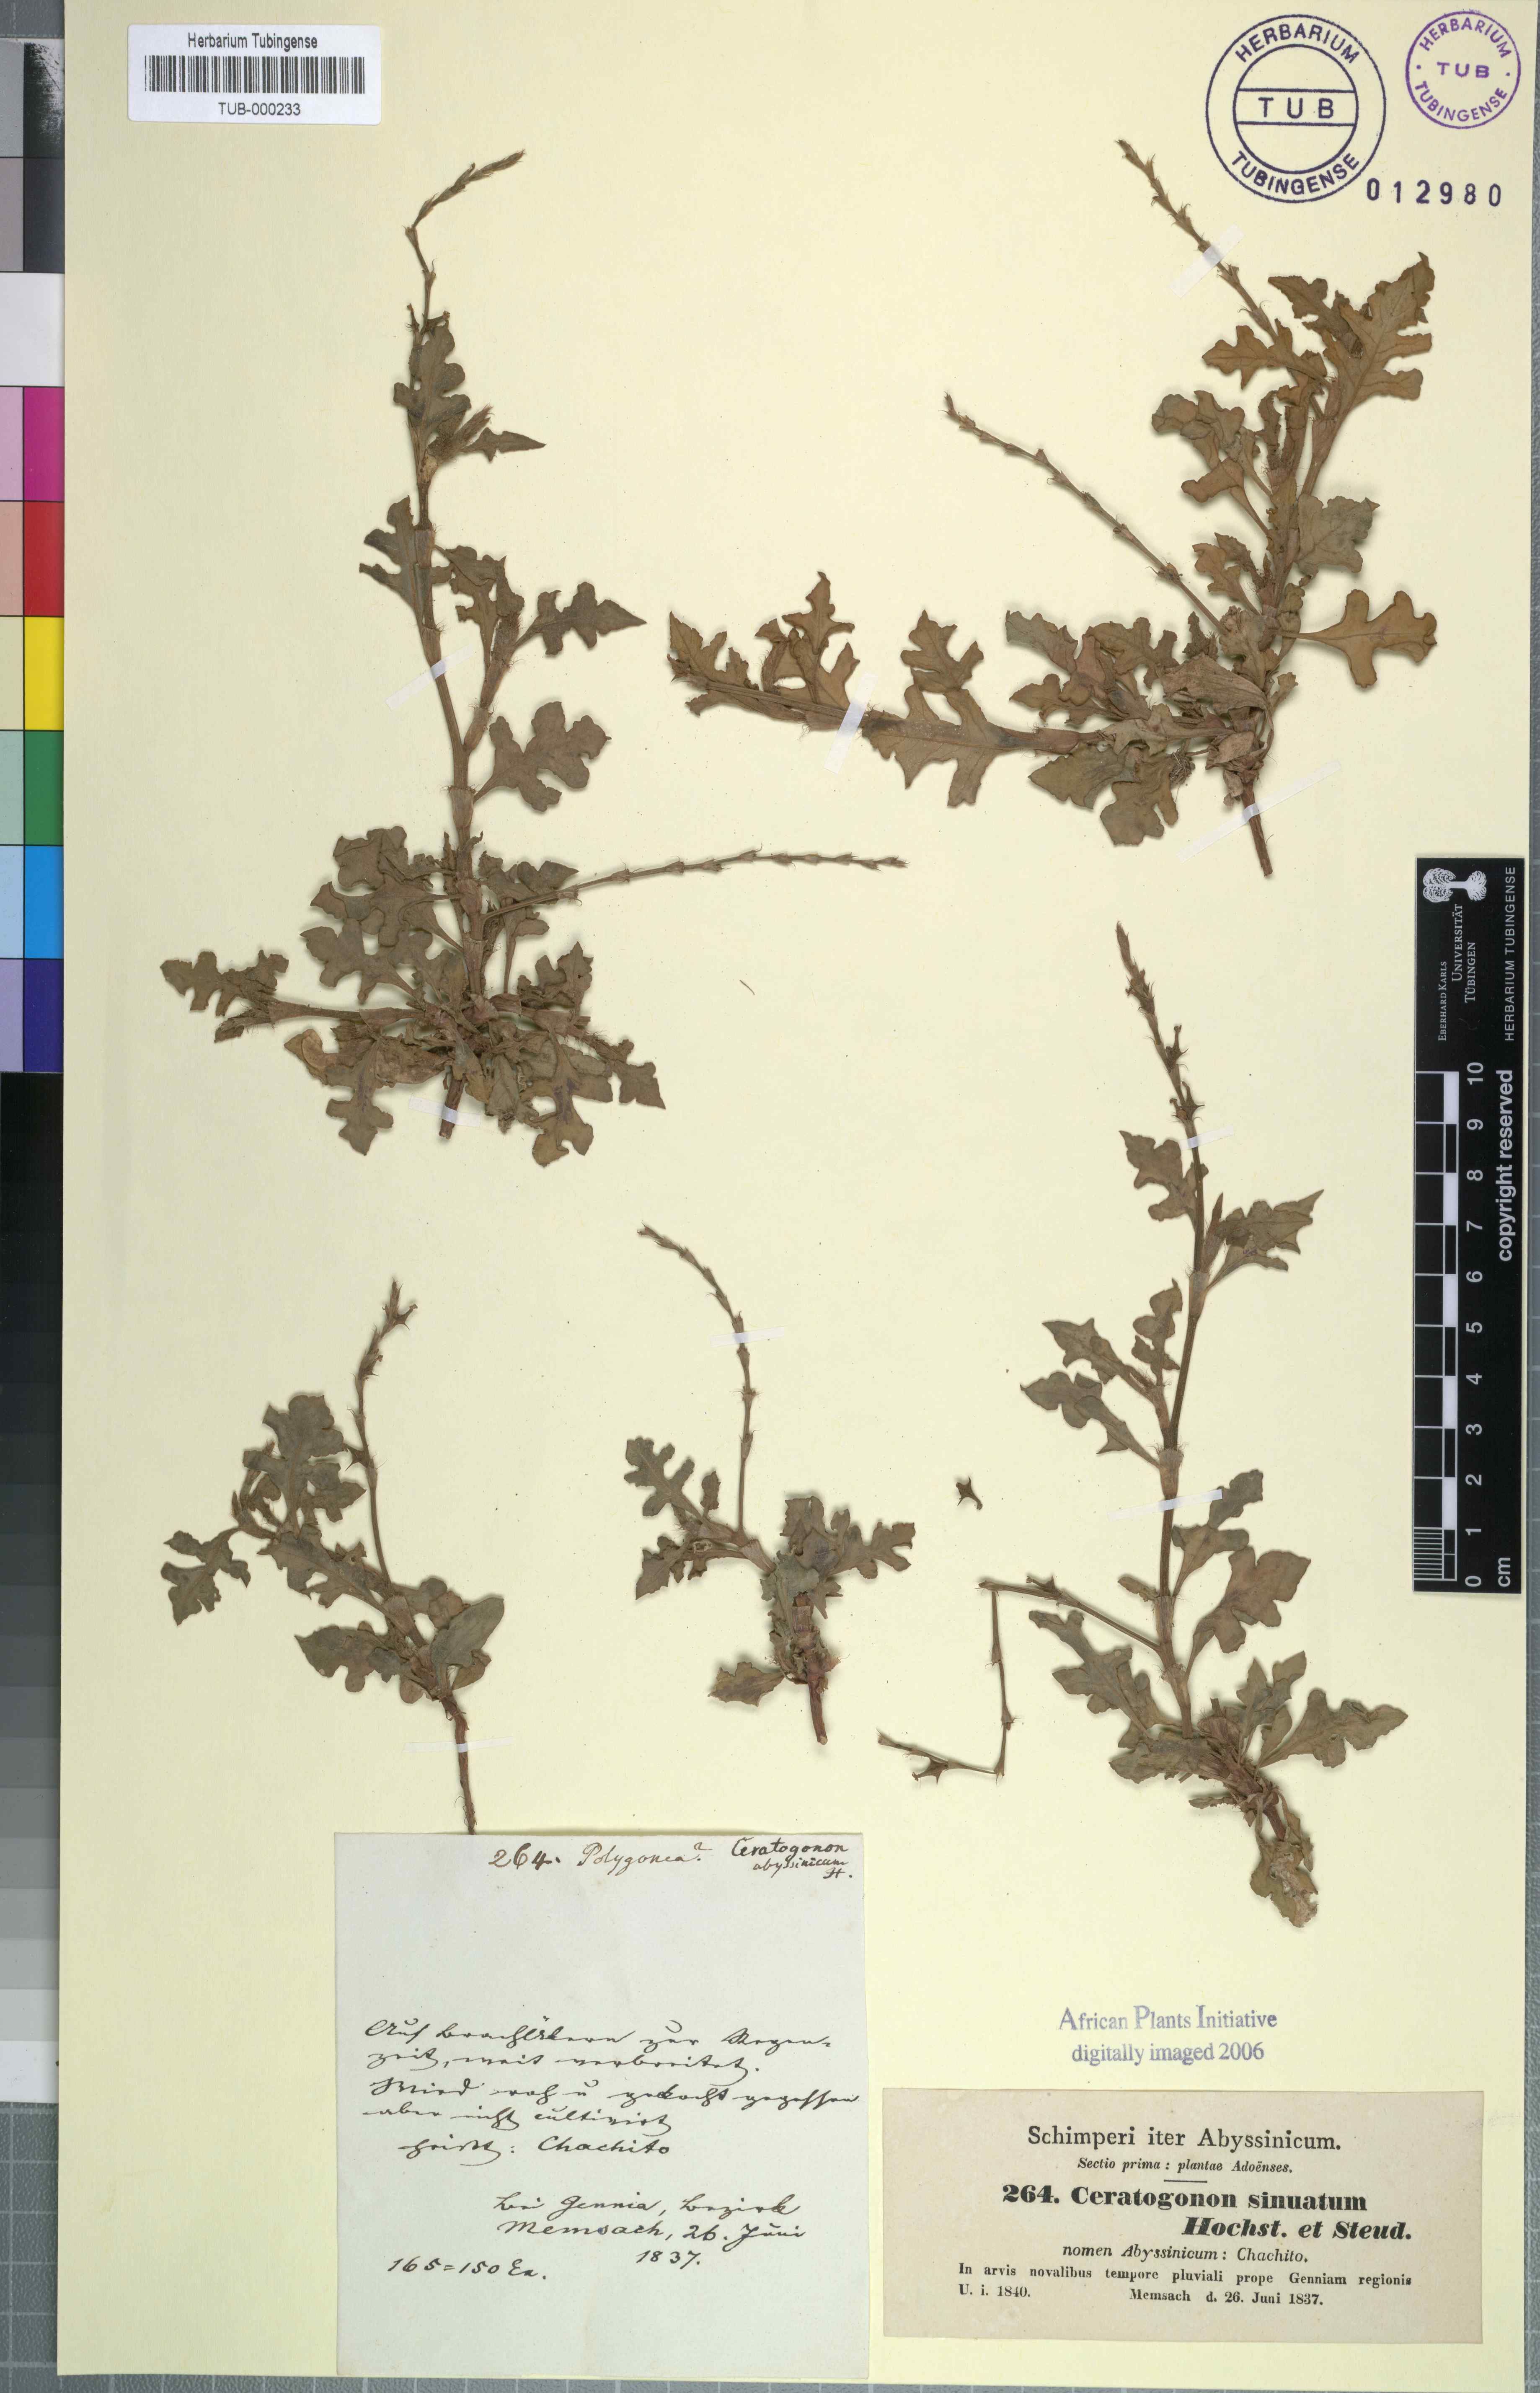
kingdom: Plantae
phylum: Tracheophyta
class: Magnoliopsida
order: Caryophyllales
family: Polygonaceae
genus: Oxygonum
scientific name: Oxygonum sinuatum
